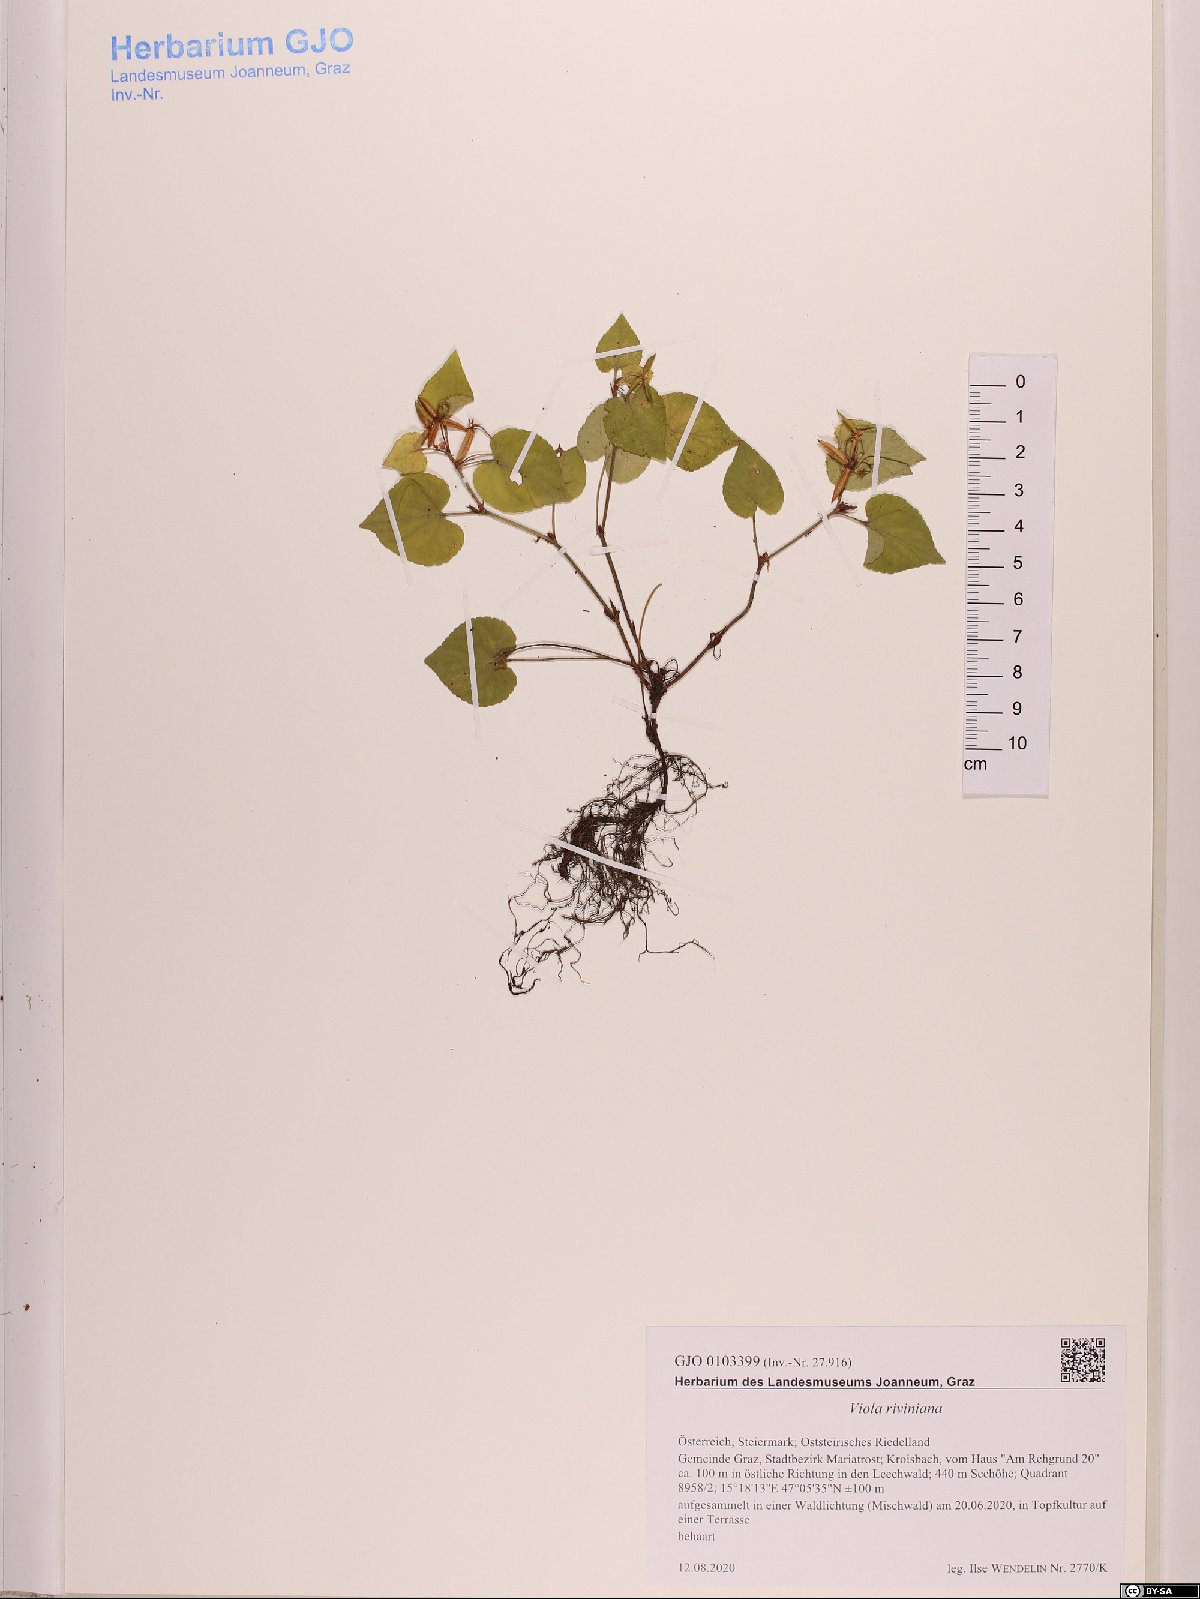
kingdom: Plantae
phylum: Tracheophyta
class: Magnoliopsida
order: Malpighiales
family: Violaceae
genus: Viola
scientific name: Viola riviniana
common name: Common dog-violet
